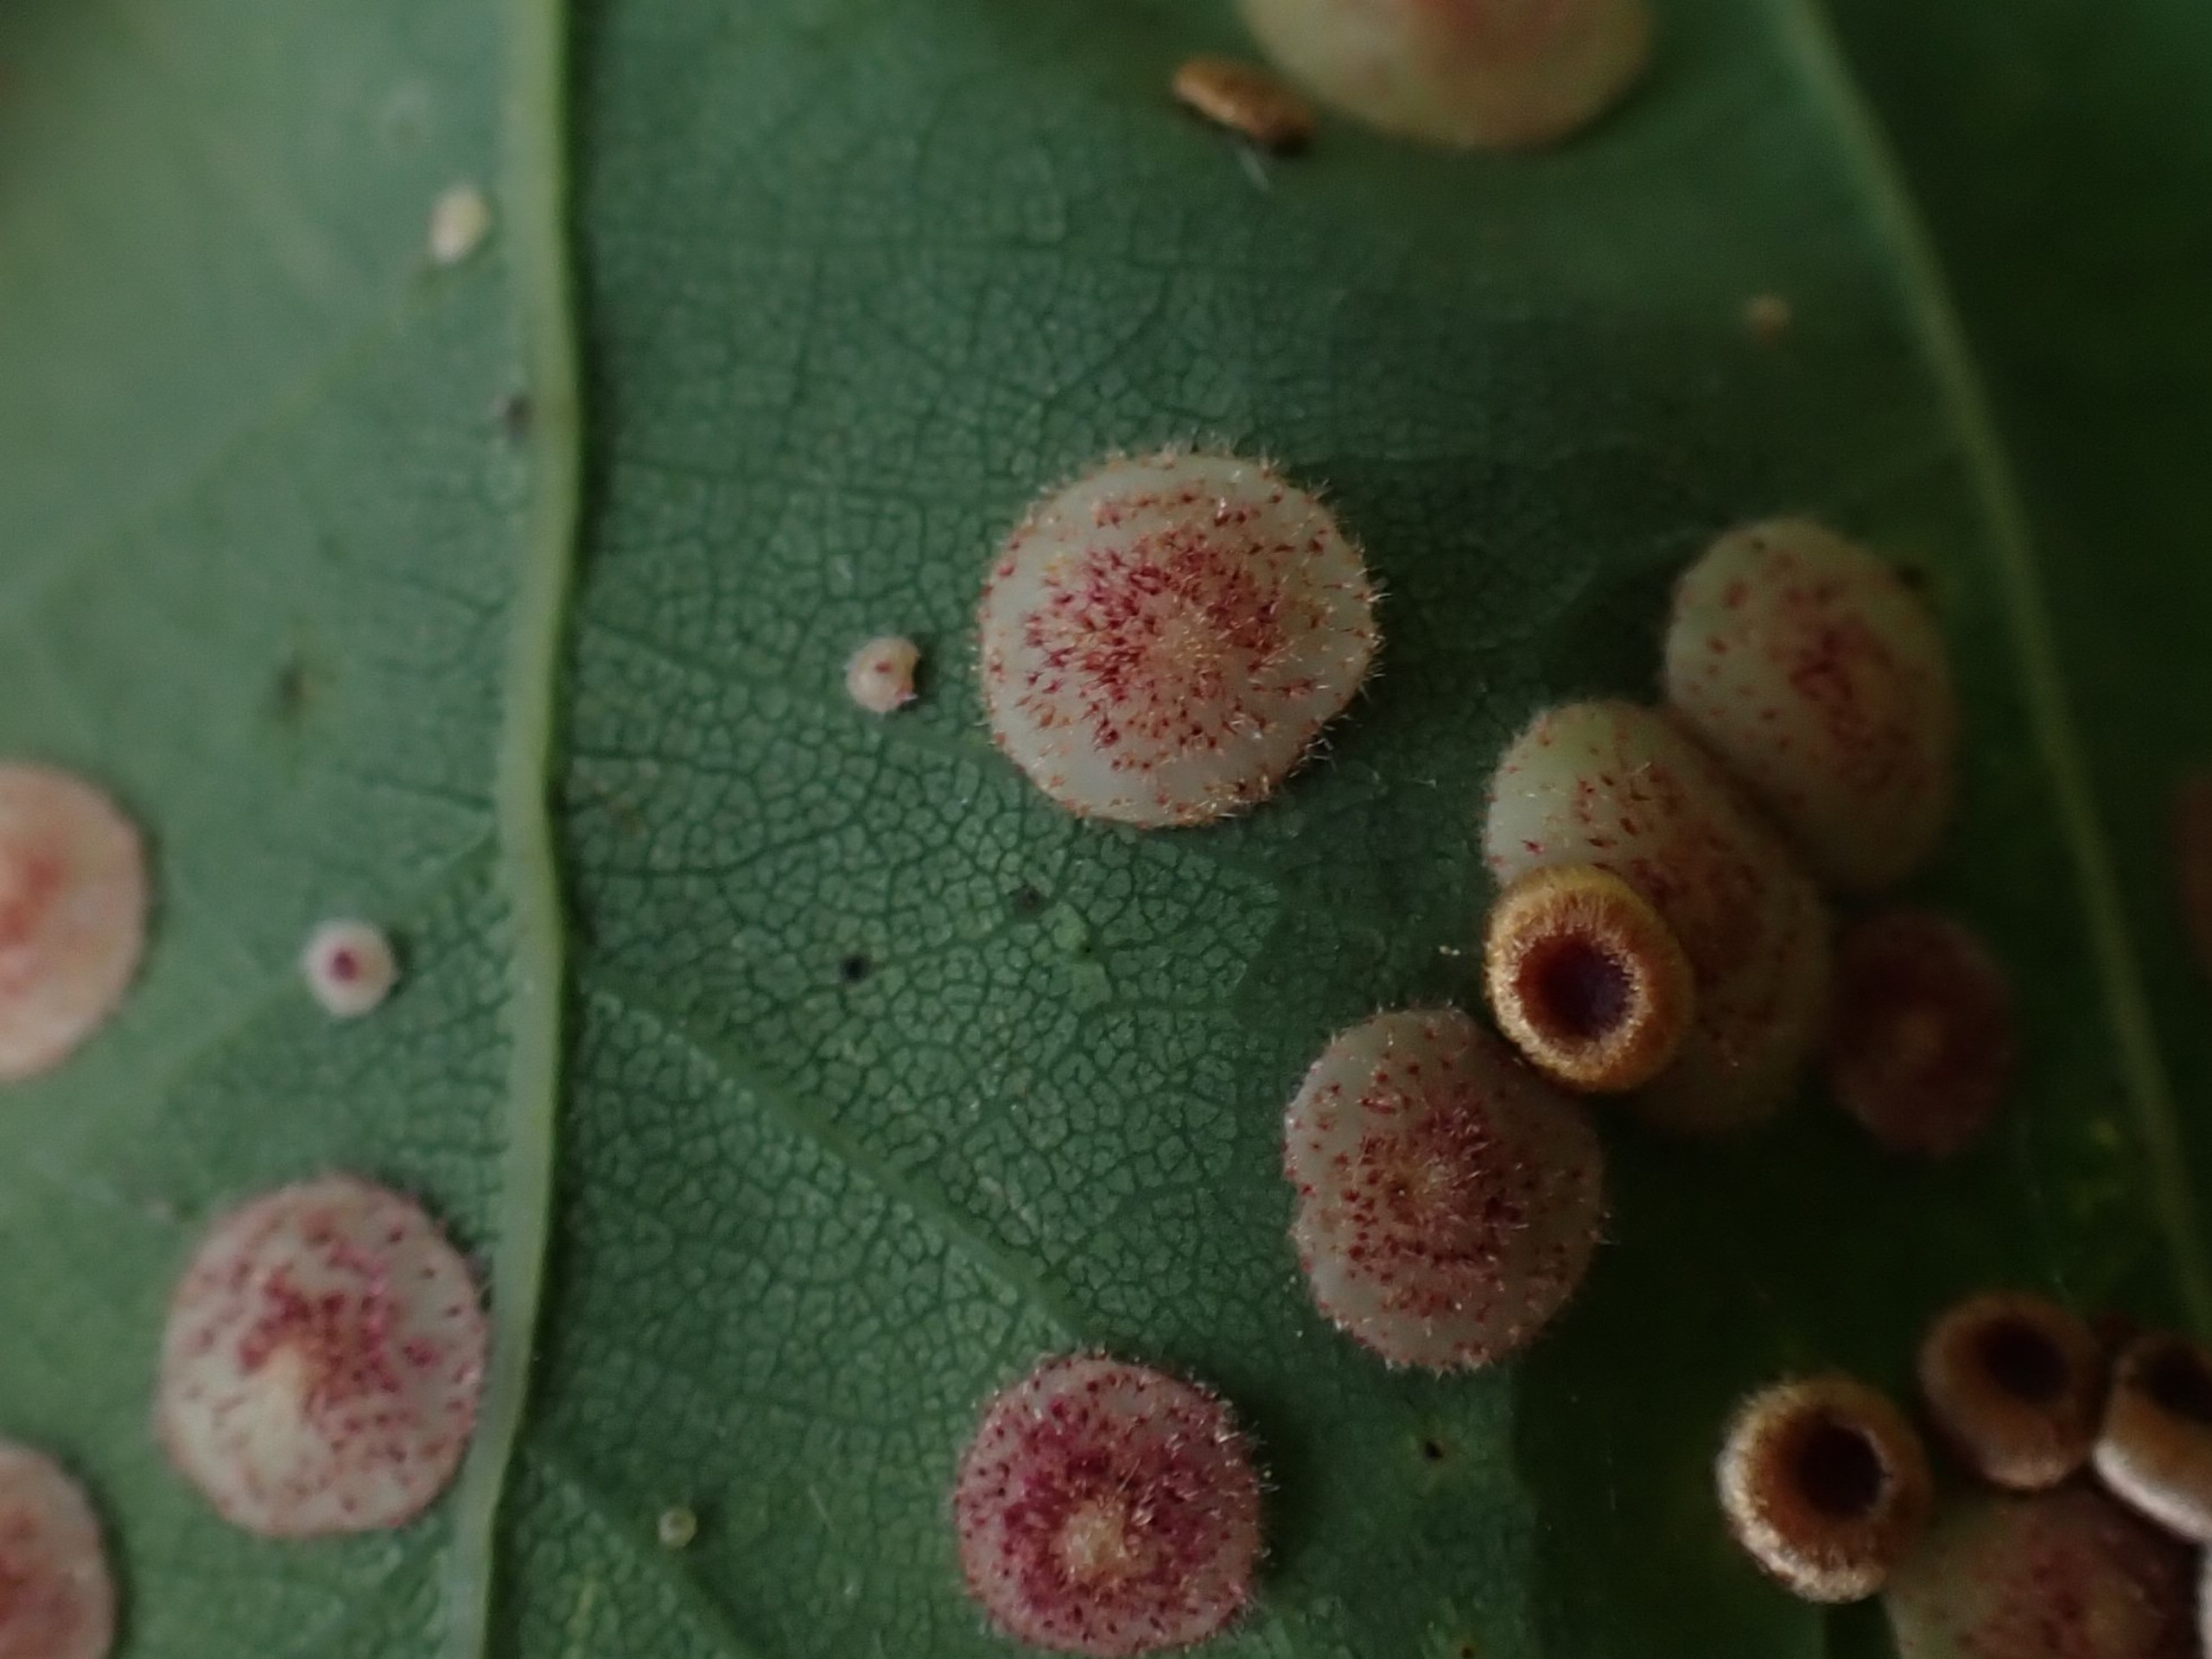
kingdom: Animalia
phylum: Arthropoda
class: Insecta
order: Hymenoptera
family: Cynipidae
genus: Neuroterus
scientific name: Neuroterus quercusbaccarum
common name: Linsegalhveps
